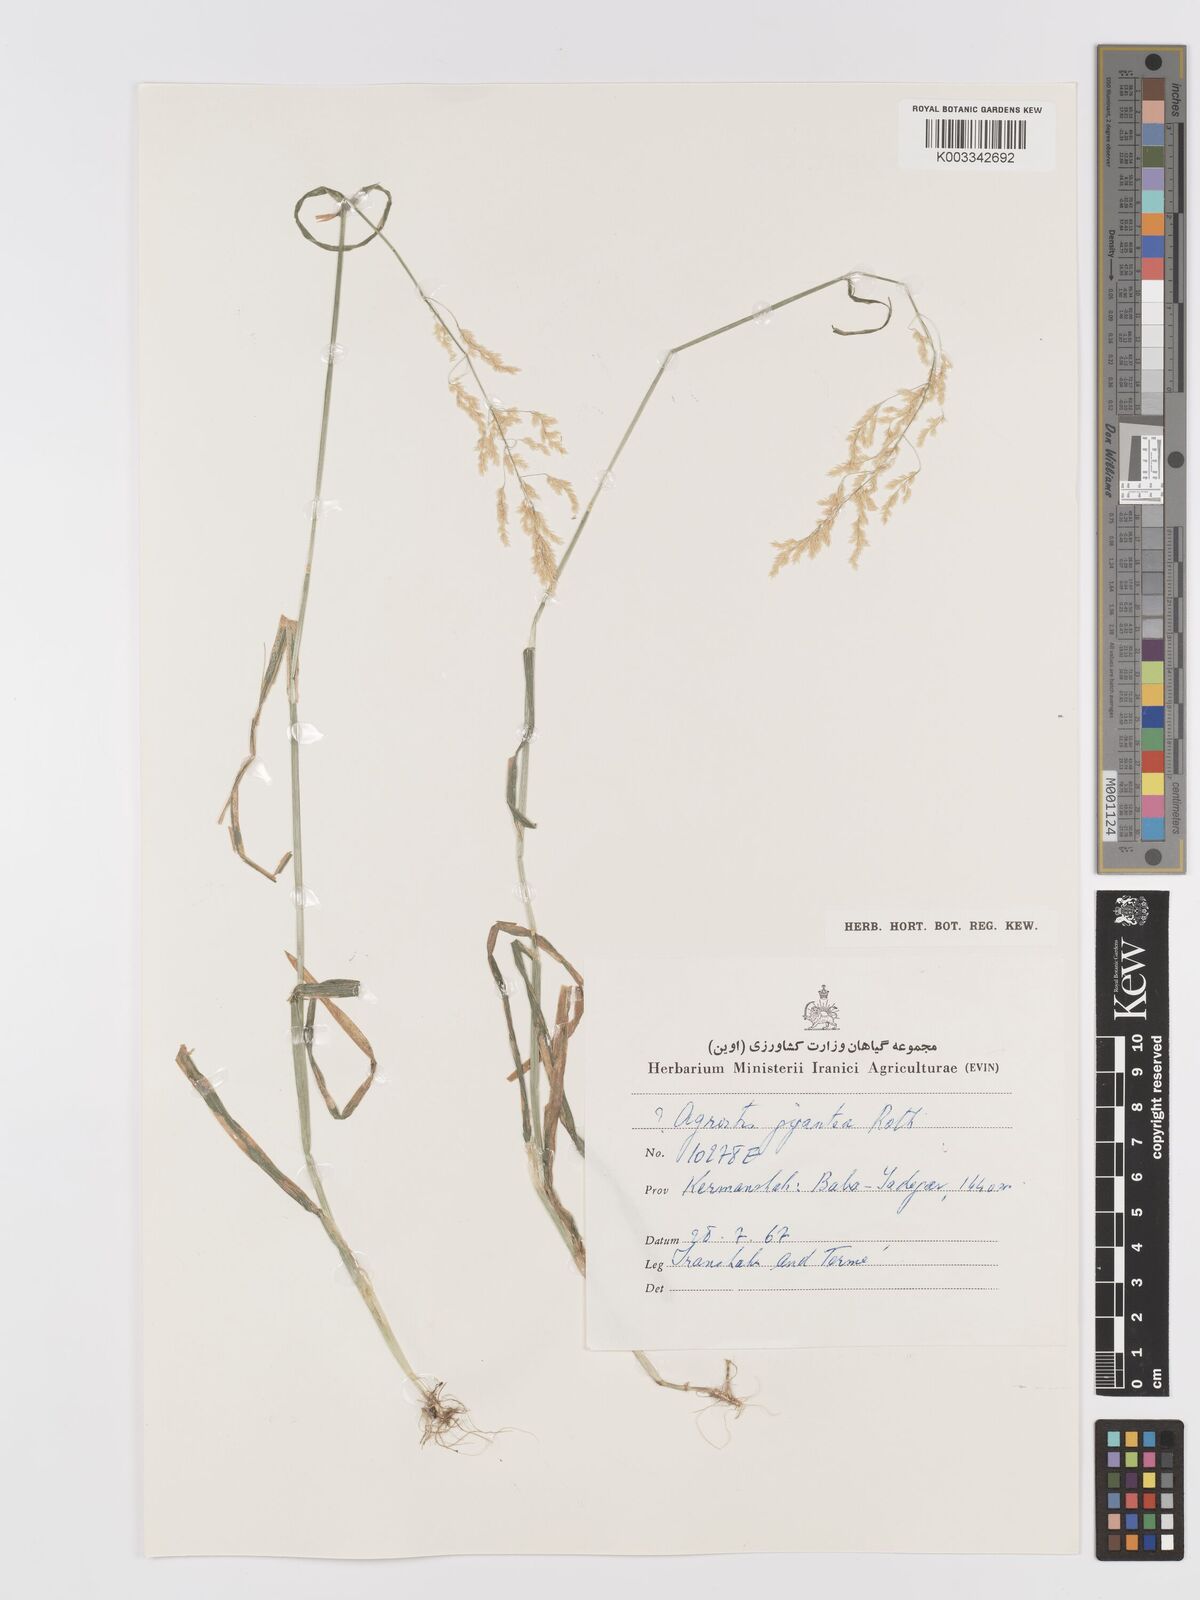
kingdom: Plantae
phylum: Tracheophyta
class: Liliopsida
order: Poales
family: Poaceae
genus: Agrostis
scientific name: Agrostis gigantea
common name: Black bent
